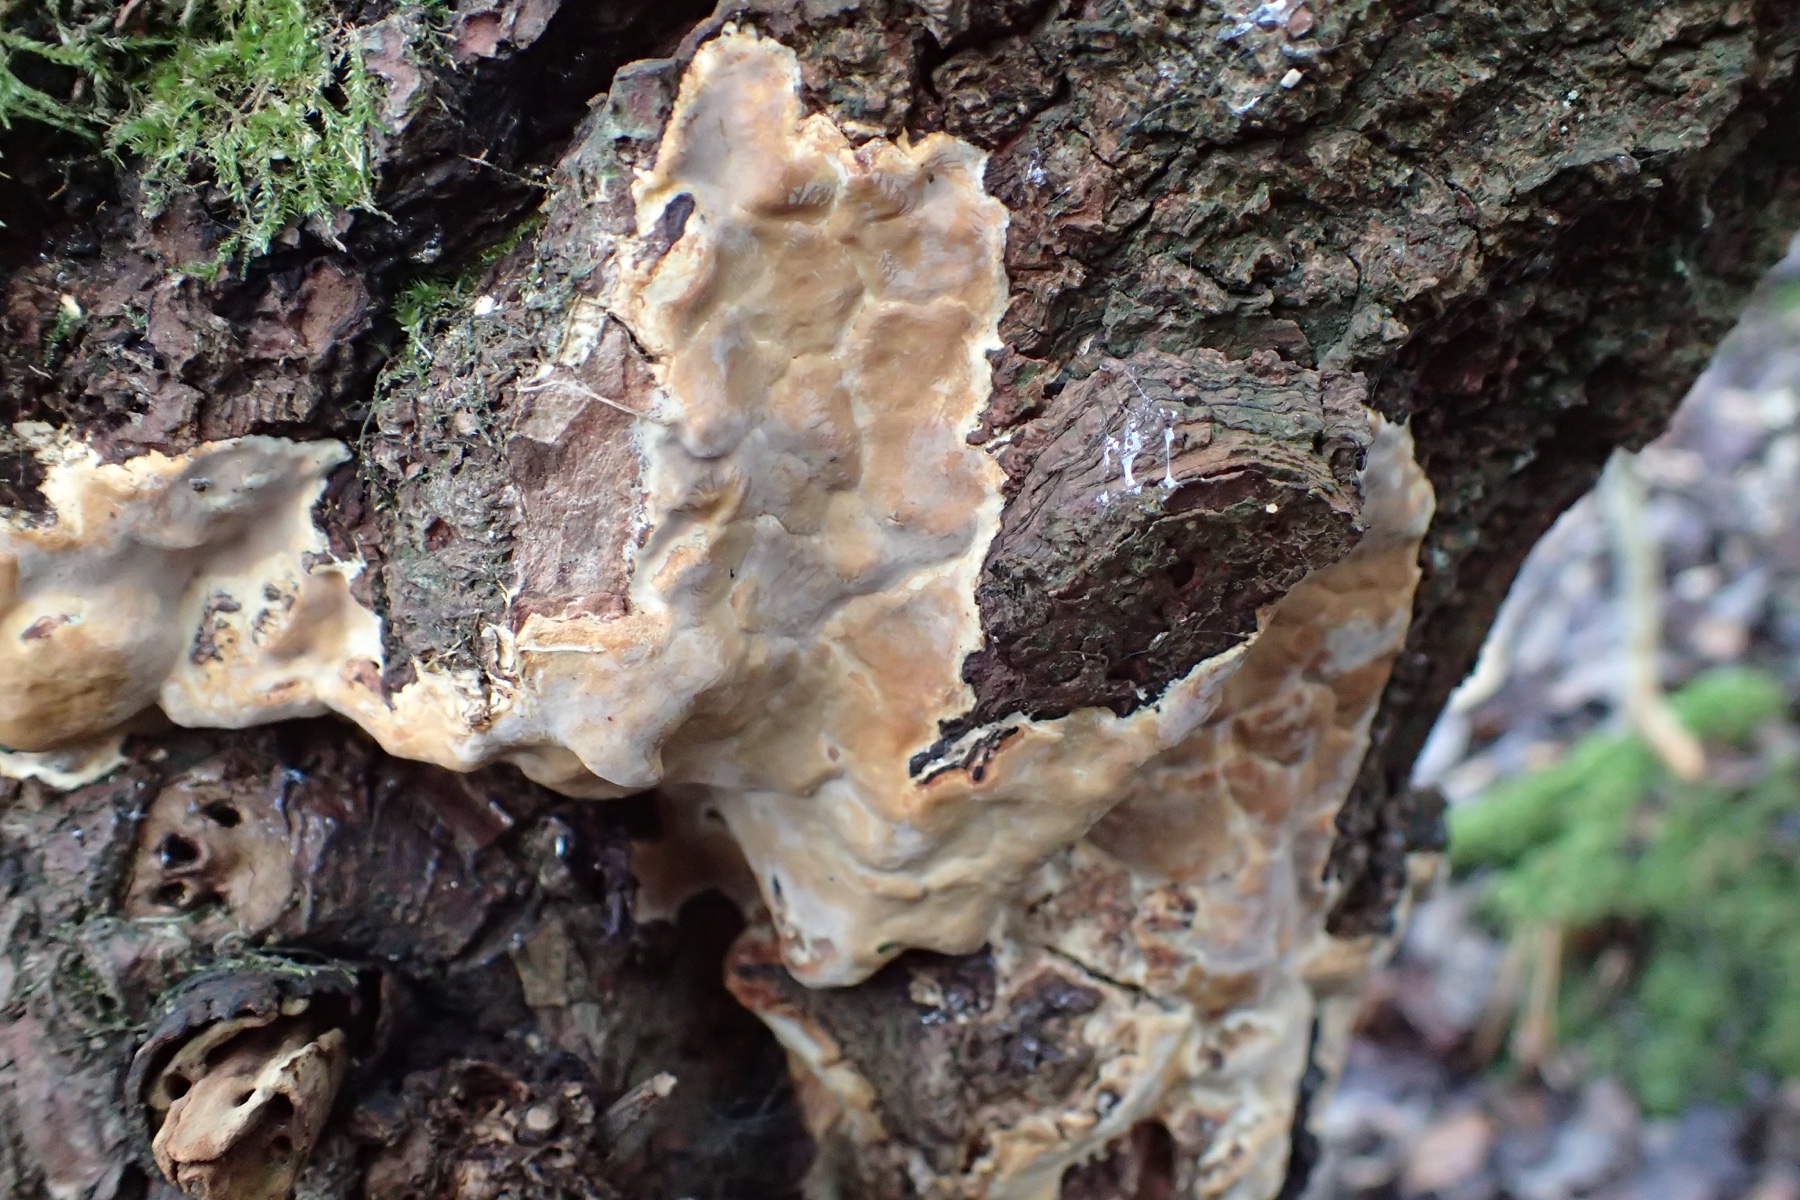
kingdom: Fungi
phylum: Basidiomycota
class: Agaricomycetes
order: Russulales
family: Peniophoraceae
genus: Scytinostroma
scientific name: Scytinostroma hemidichophyticum
